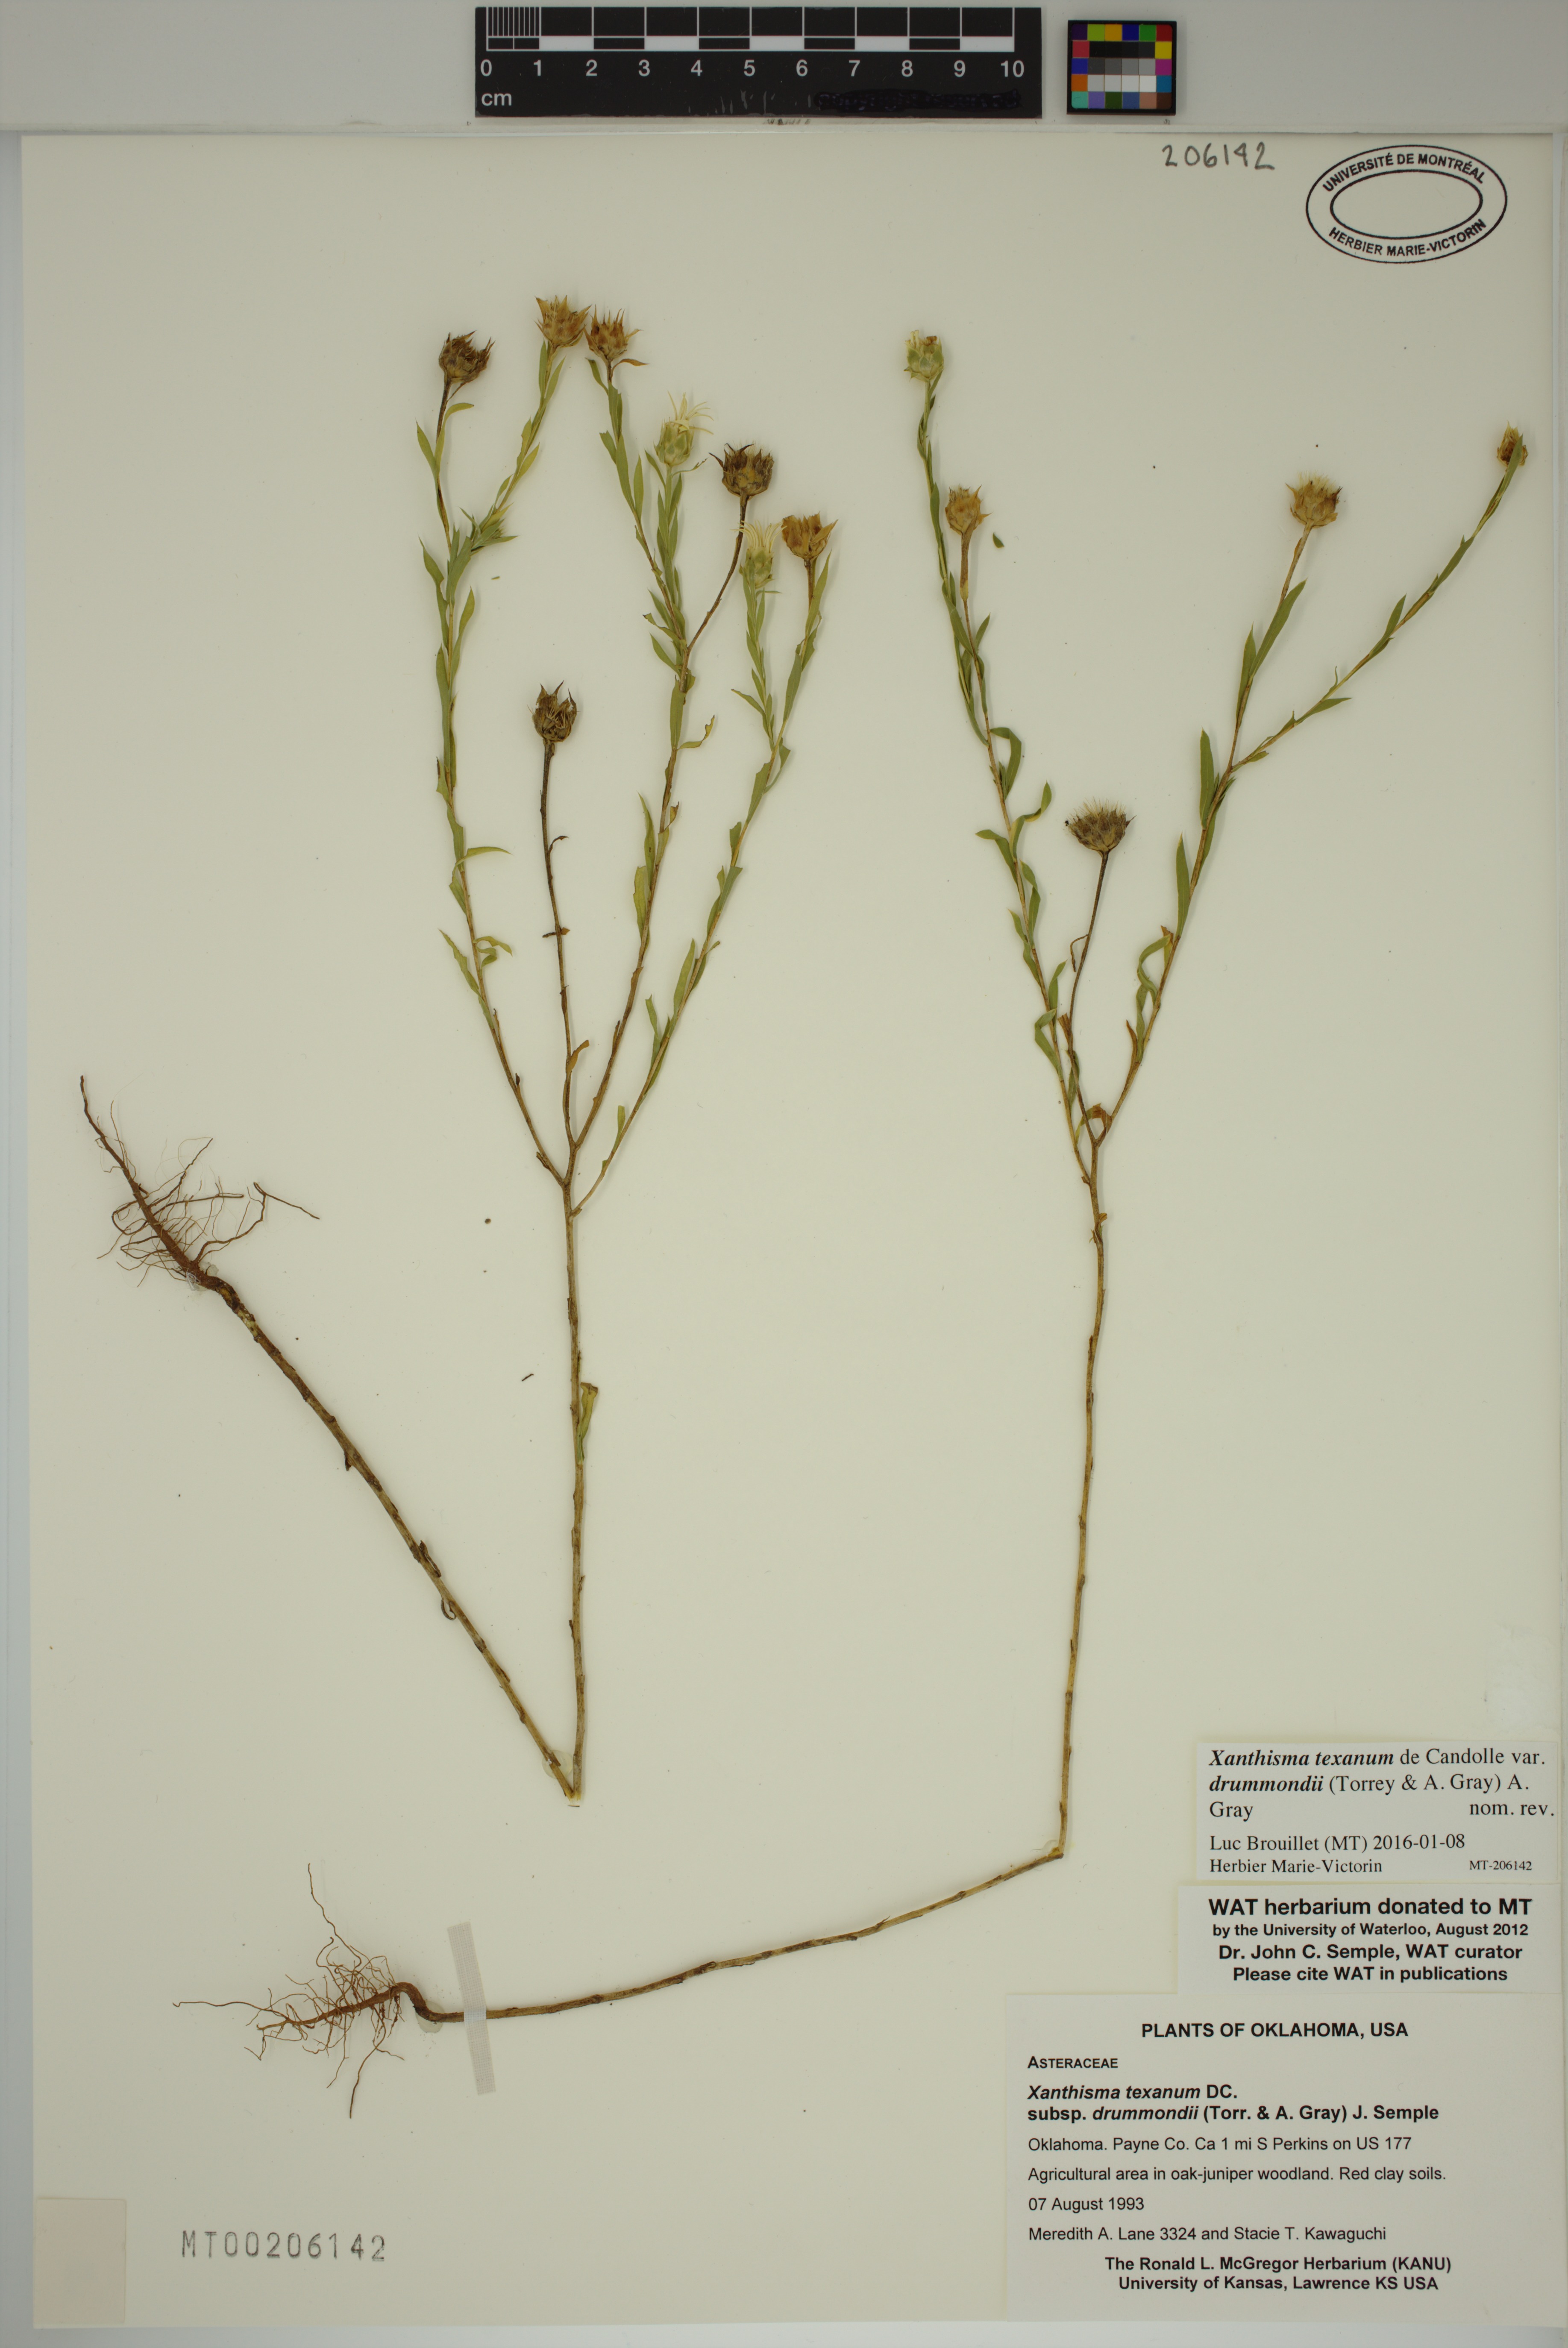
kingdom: Plantae
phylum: Tracheophyta
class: Magnoliopsida
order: Asterales
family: Asteraceae
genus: Xanthisma
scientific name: Xanthisma texanum
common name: Texas sleepy daisy
